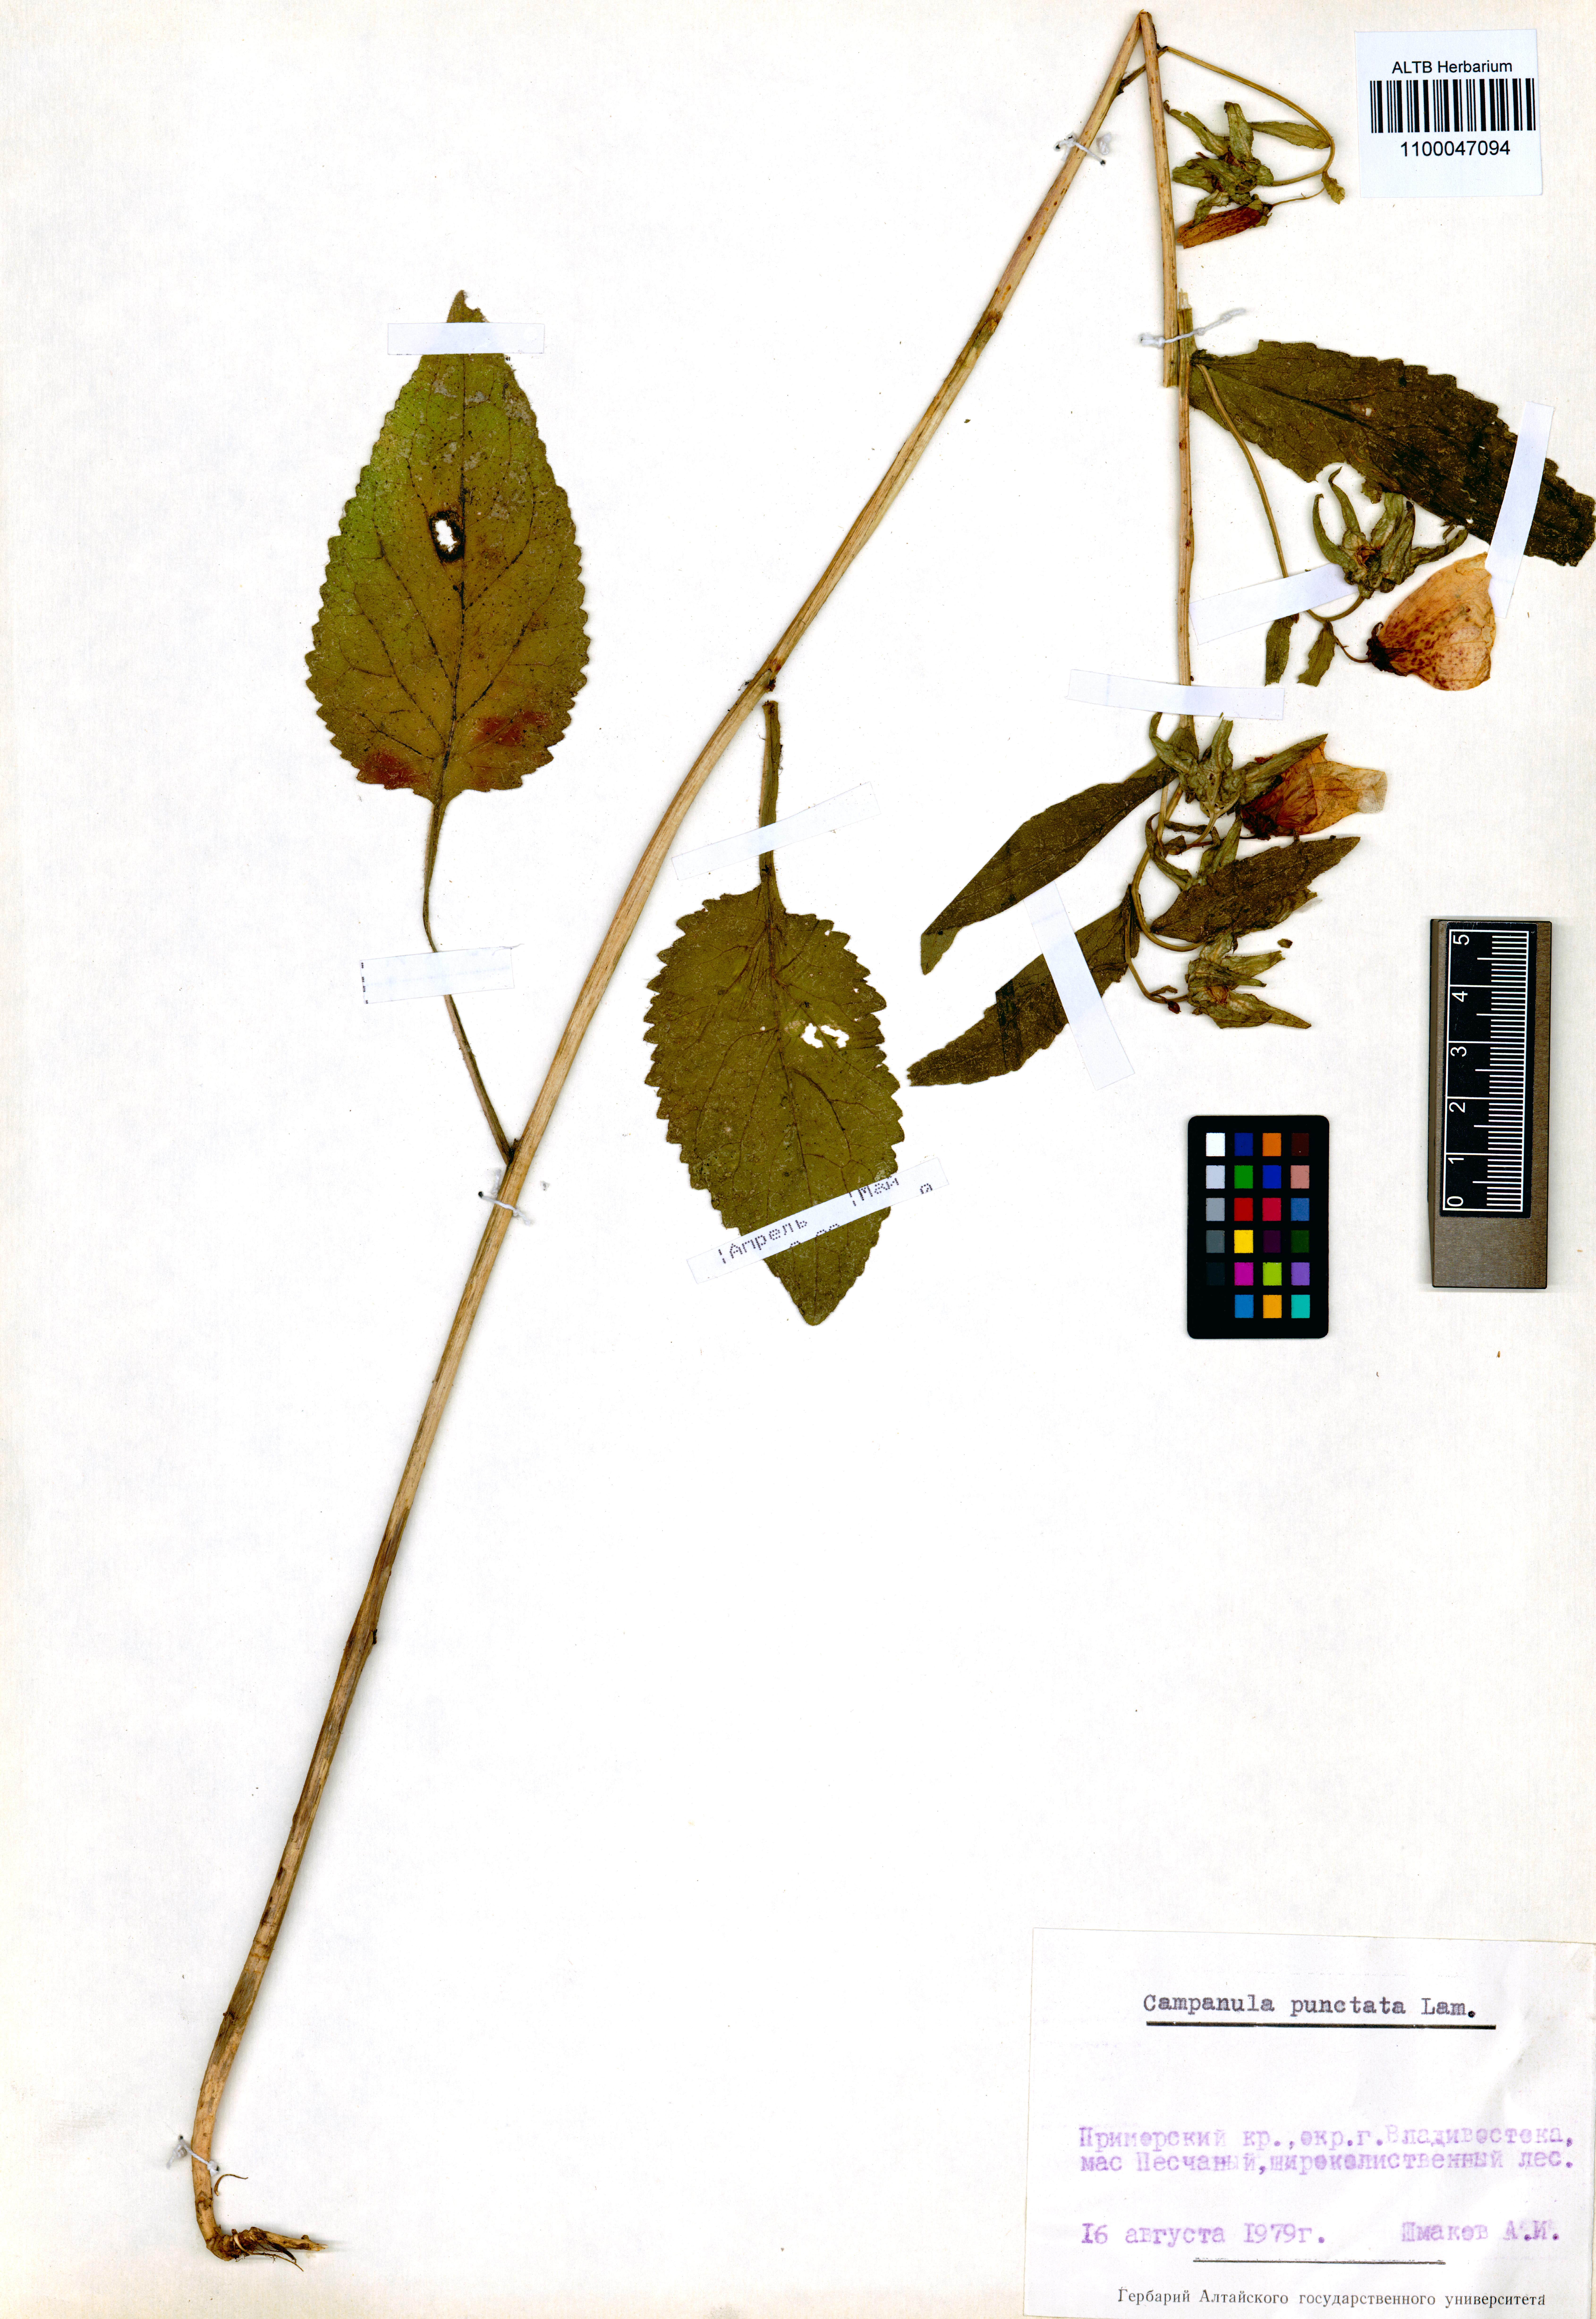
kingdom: Plantae
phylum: Tracheophyta
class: Magnoliopsida
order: Asterales
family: Campanulaceae
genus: Campanula
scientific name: Campanula punctata
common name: Spotted bellflower
